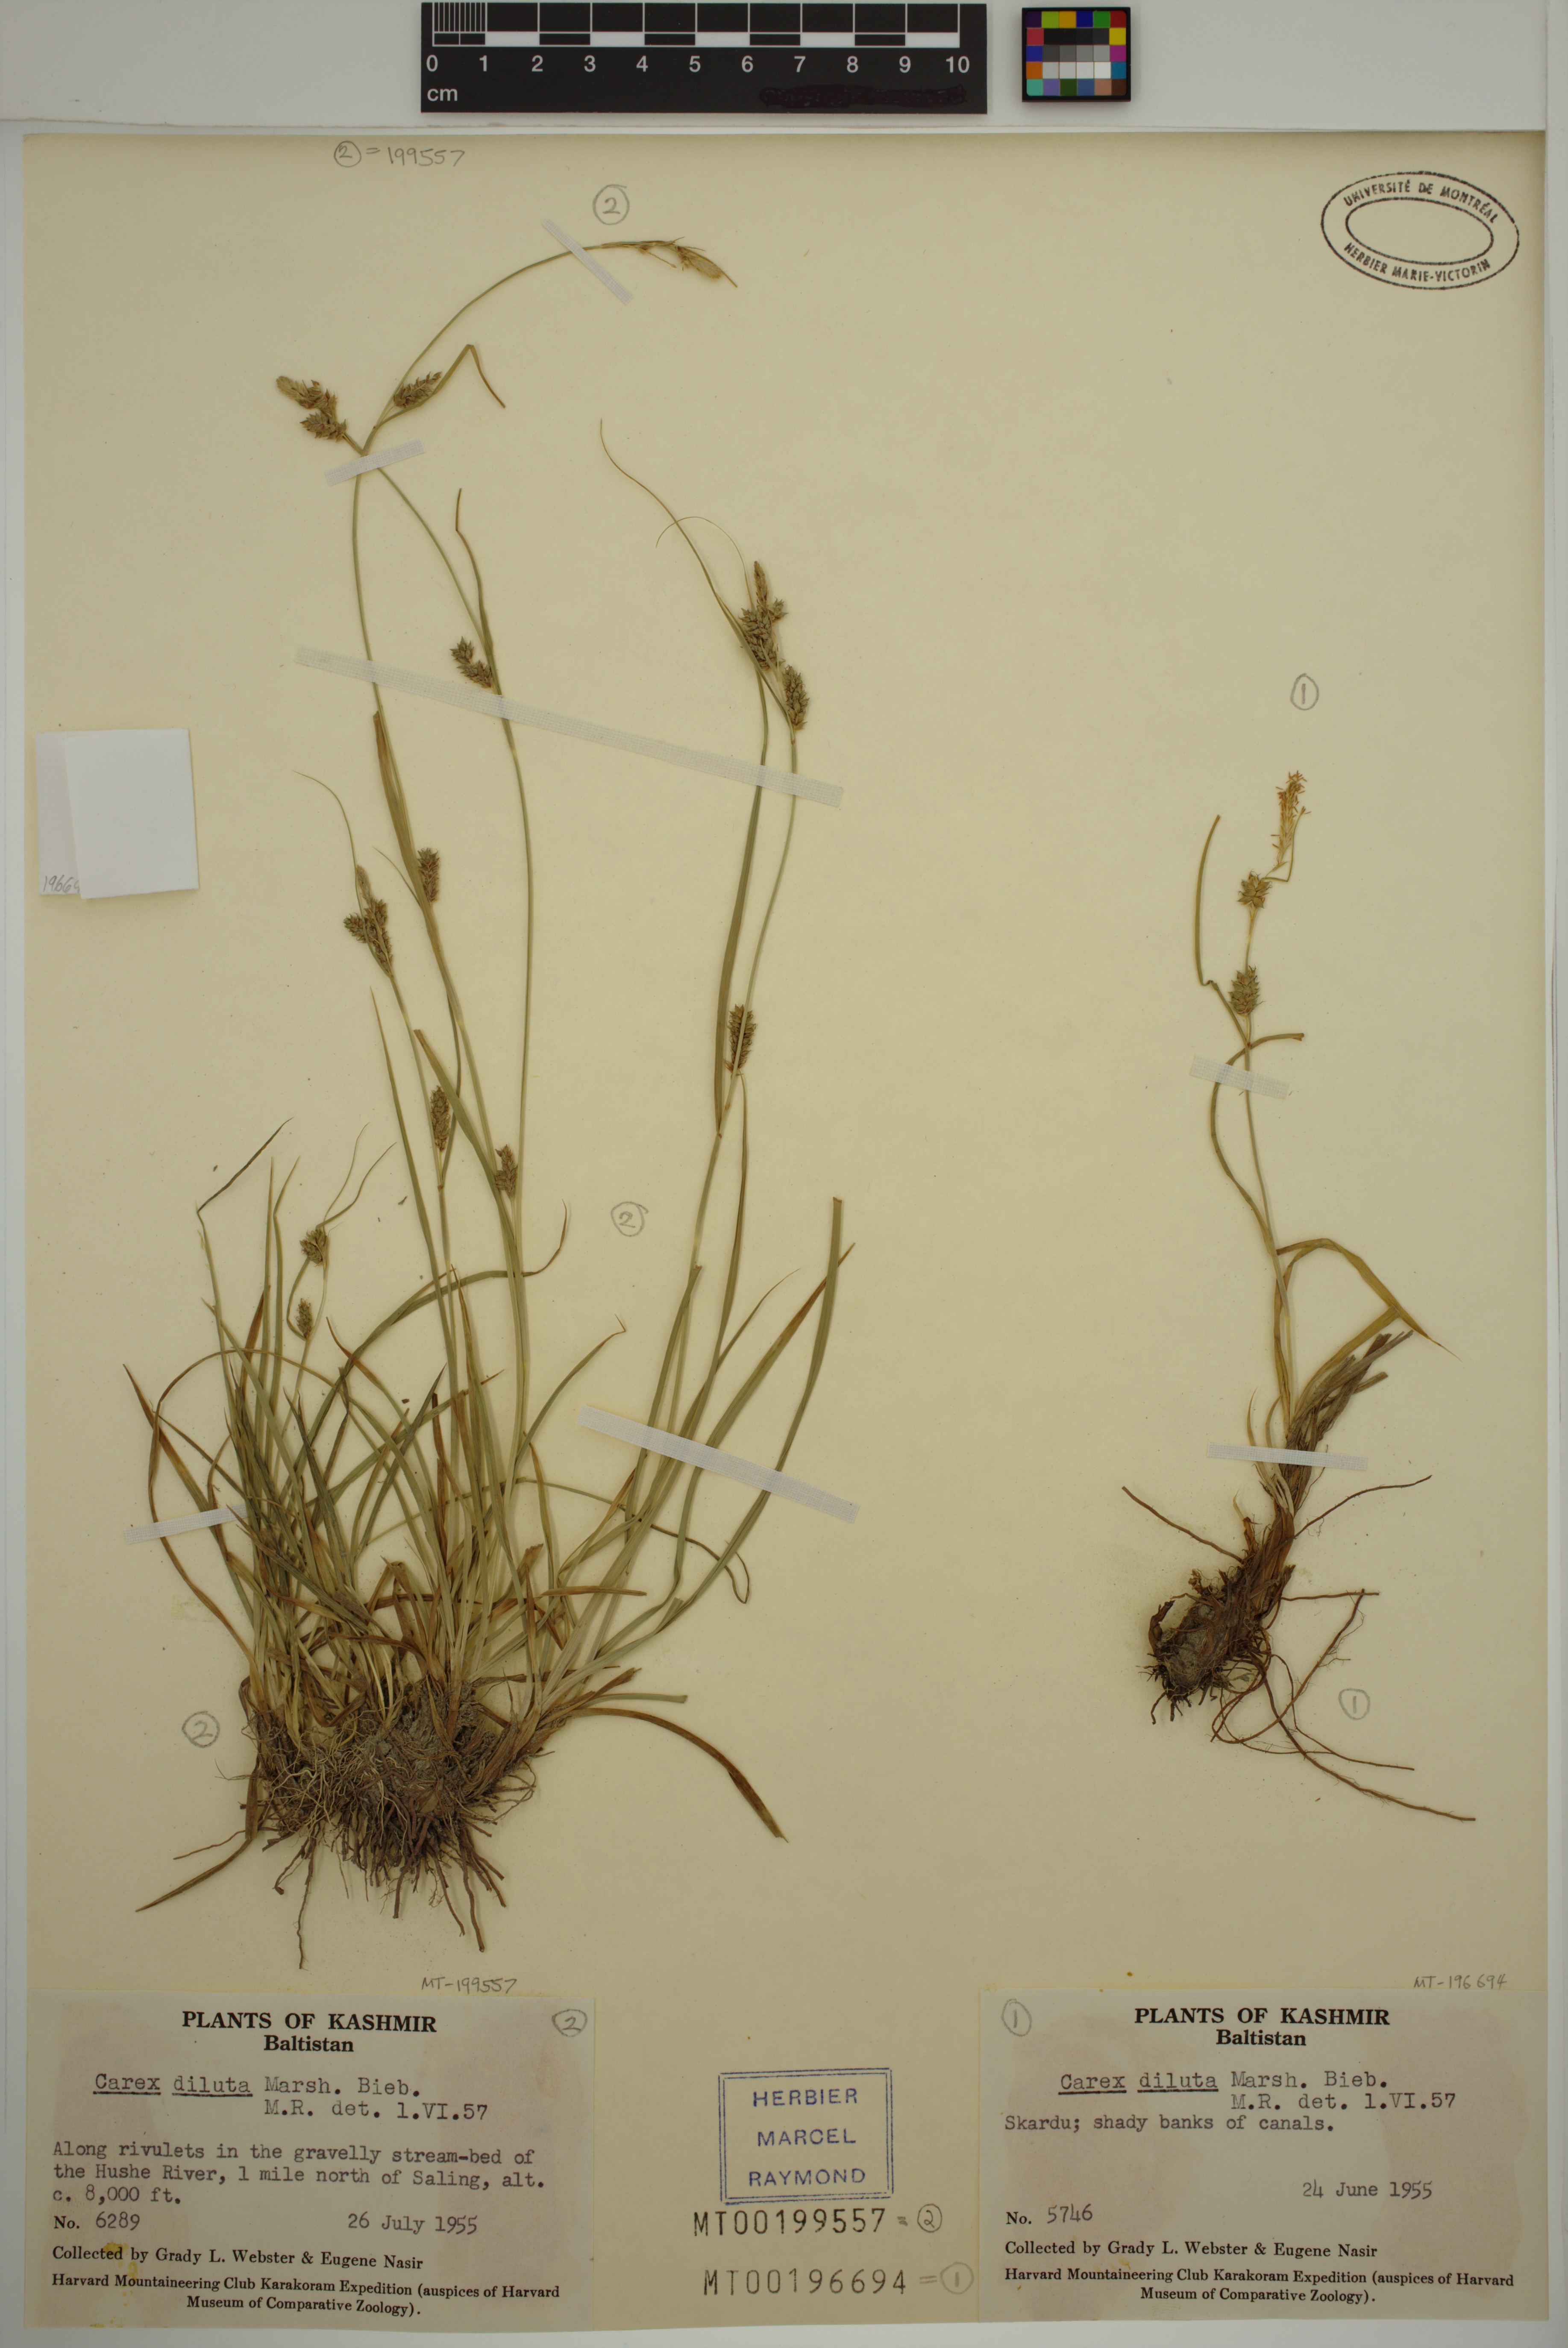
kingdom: Plantae
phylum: Tracheophyta
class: Liliopsida
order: Poales
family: Cyperaceae
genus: Carex
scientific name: Carex diluta
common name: Sedge
